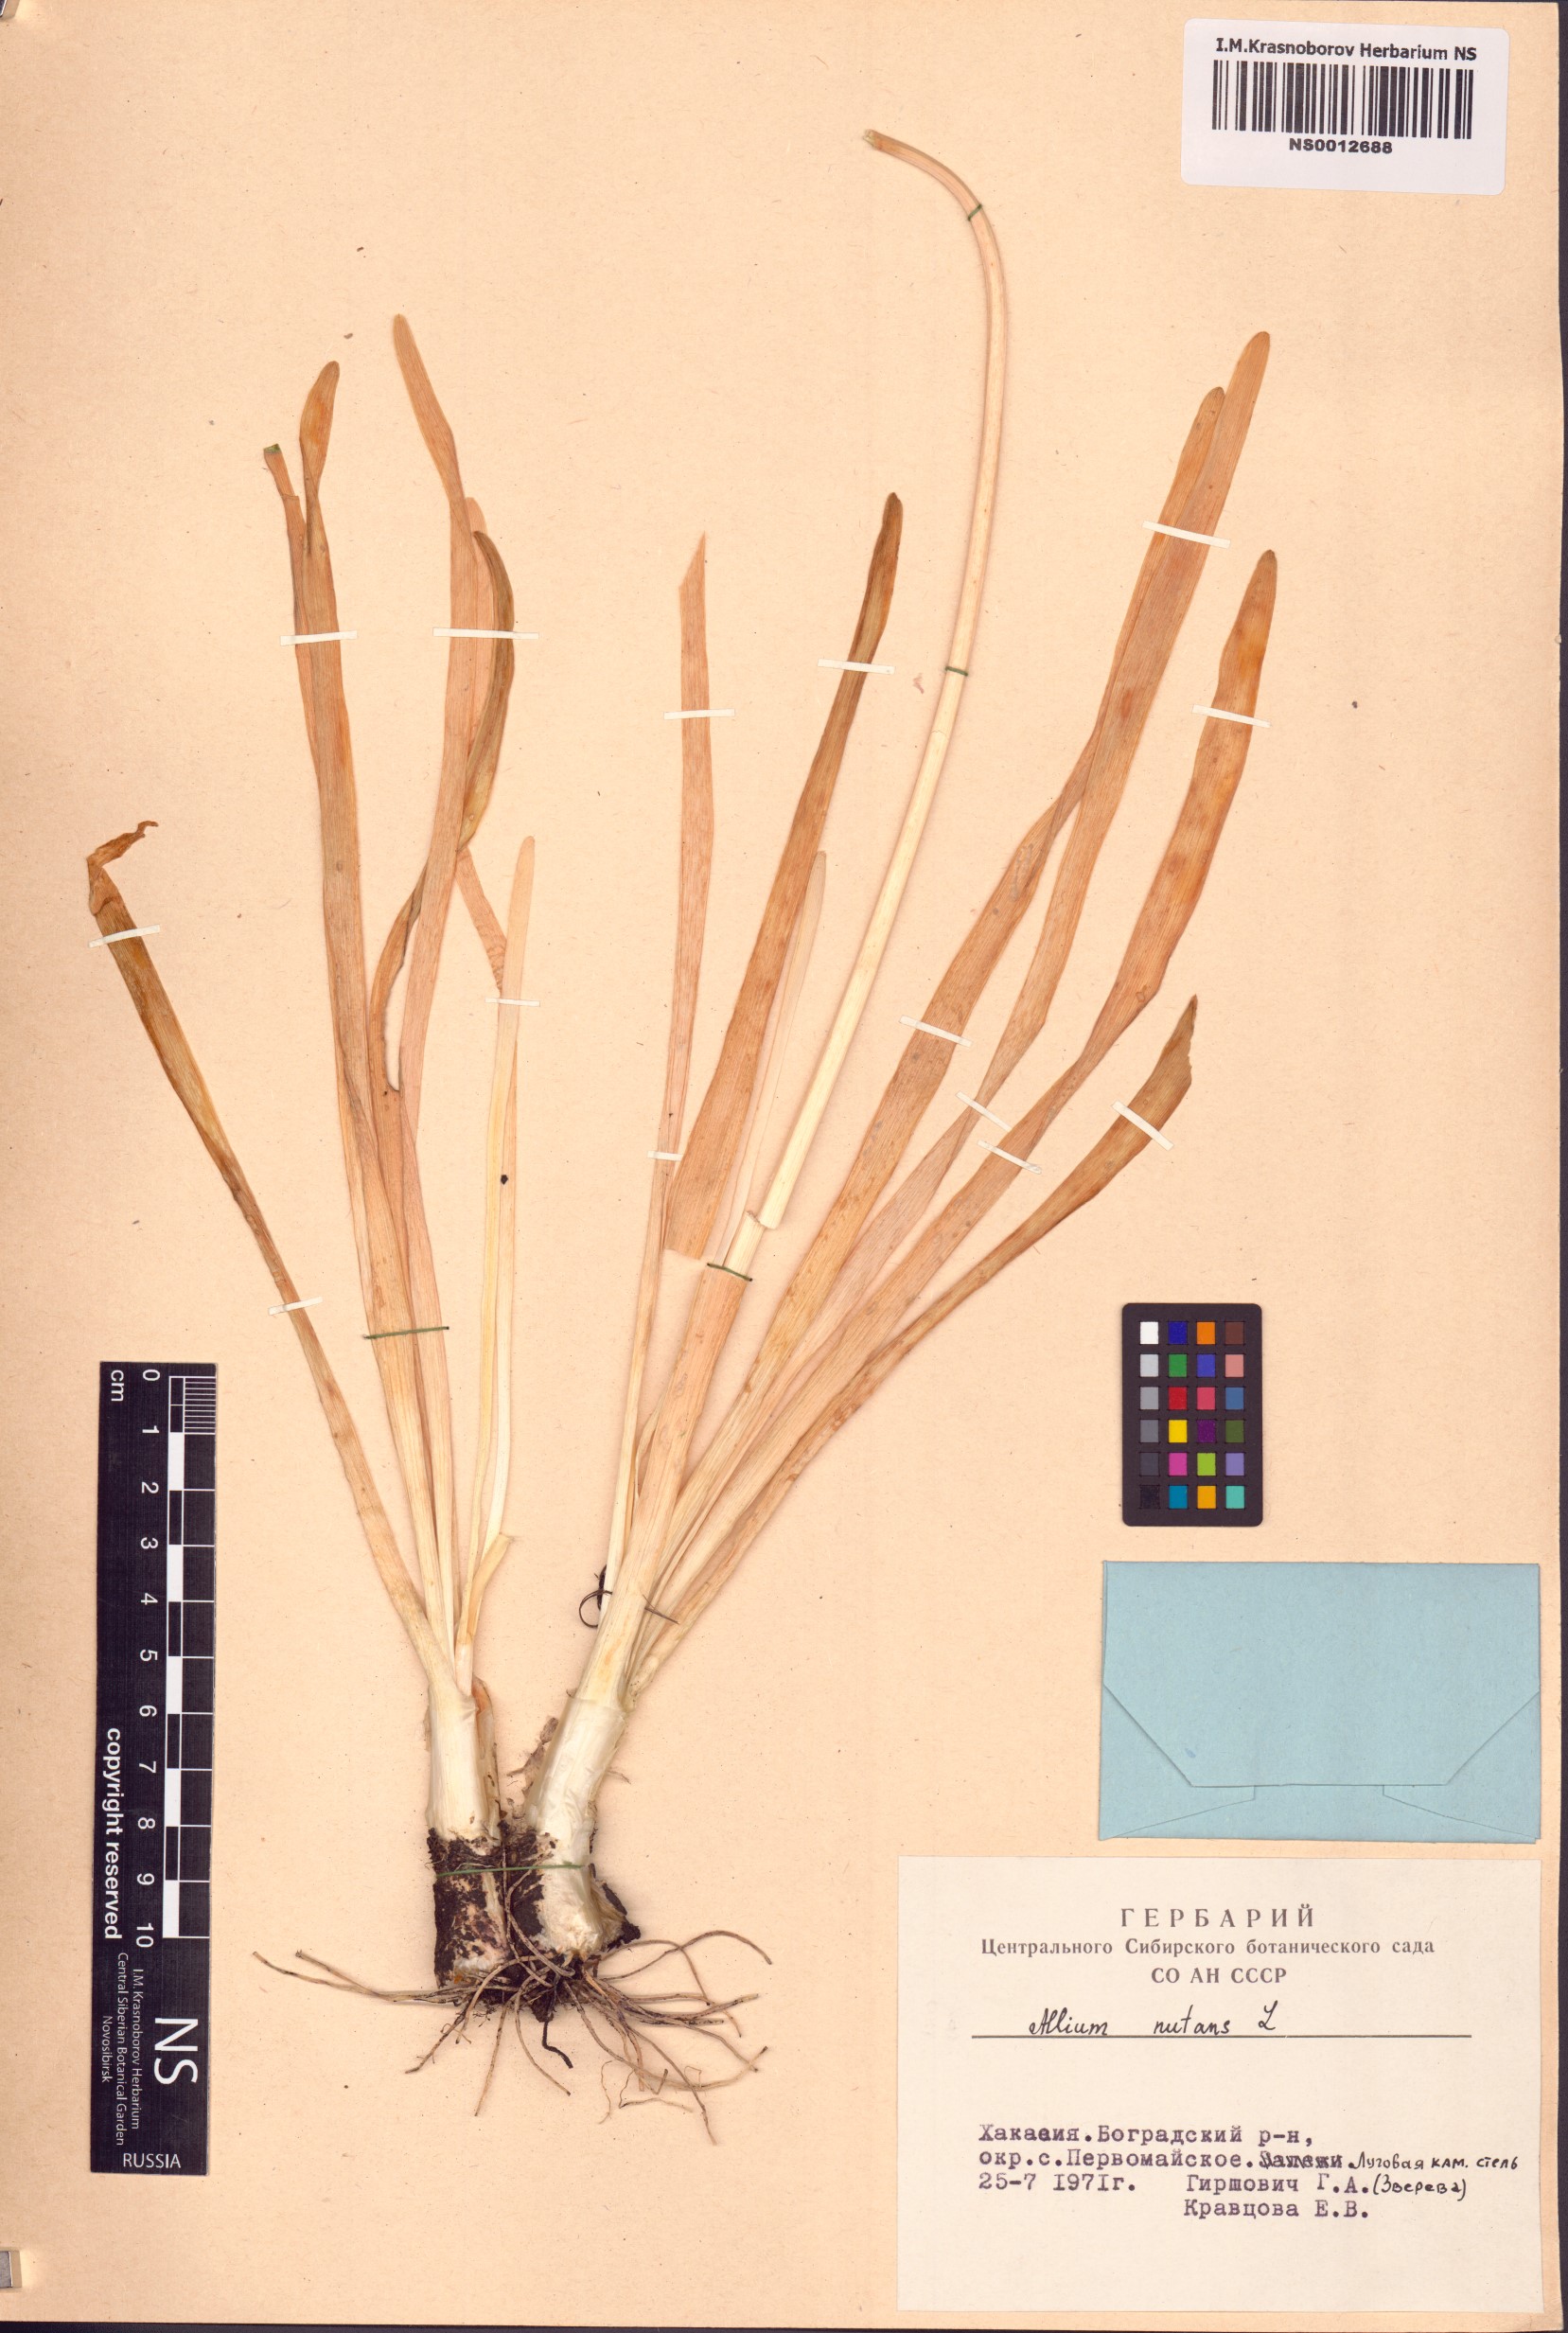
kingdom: Plantae
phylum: Tracheophyta
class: Liliopsida
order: Asparagales
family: Amaryllidaceae
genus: Allium
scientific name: Allium nutans
